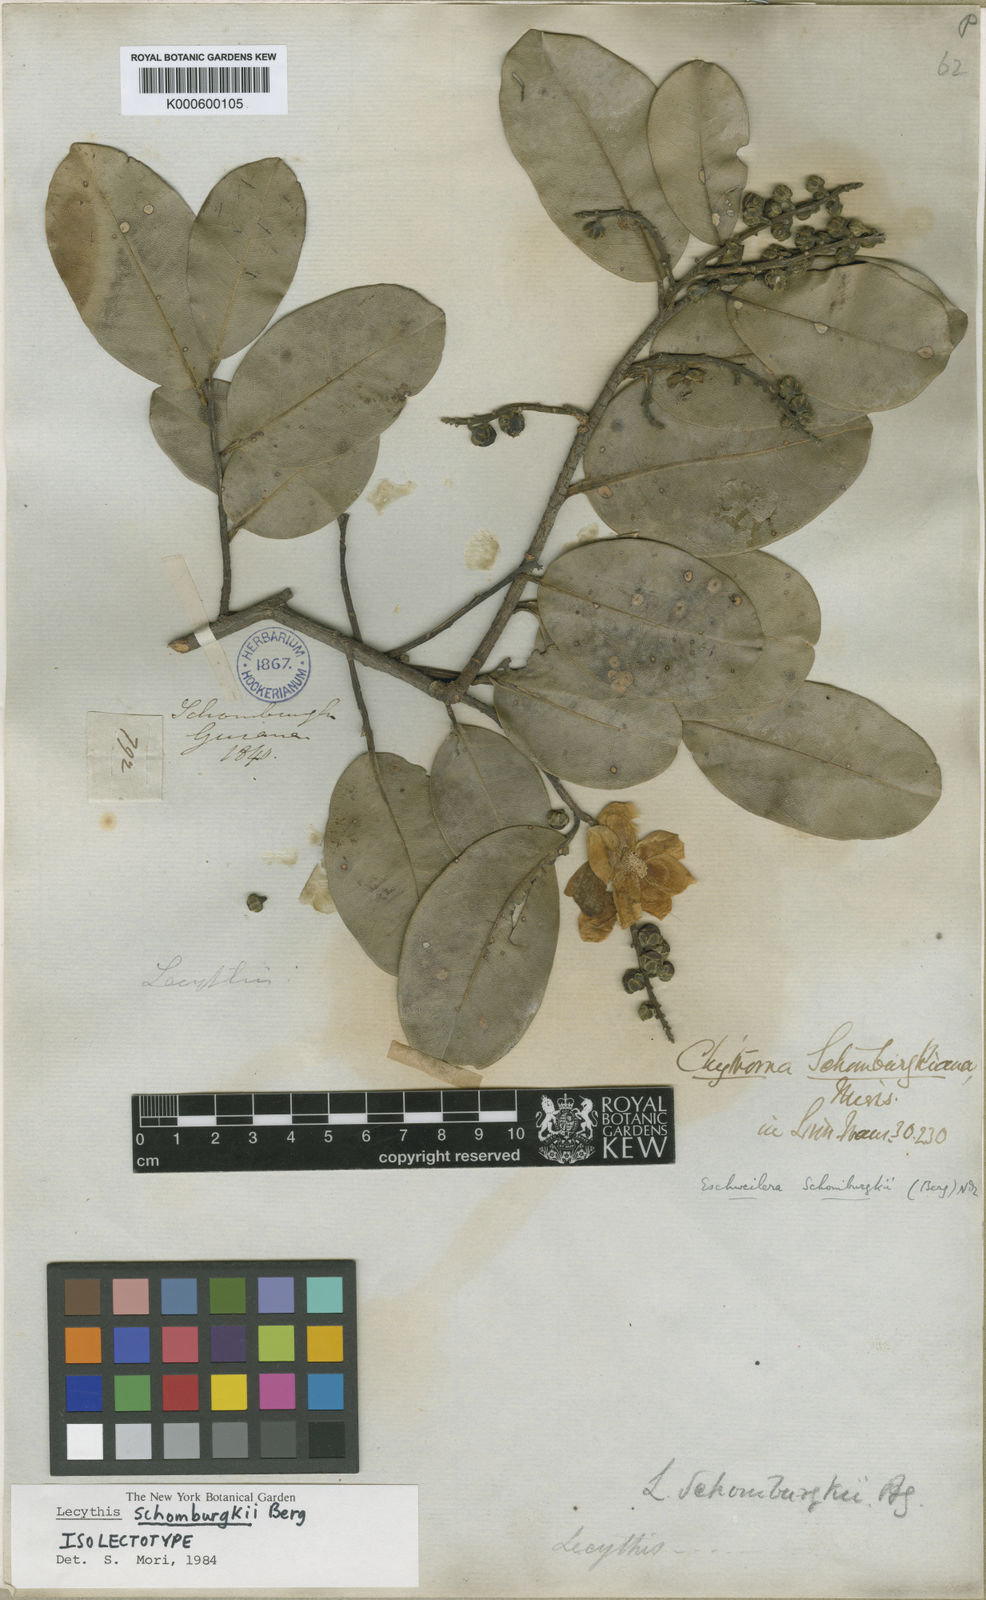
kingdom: Plantae
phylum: Tracheophyta
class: Magnoliopsida
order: Ericales
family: Lecythidaceae
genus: Lecythis
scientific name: Lecythis schomburgkii
